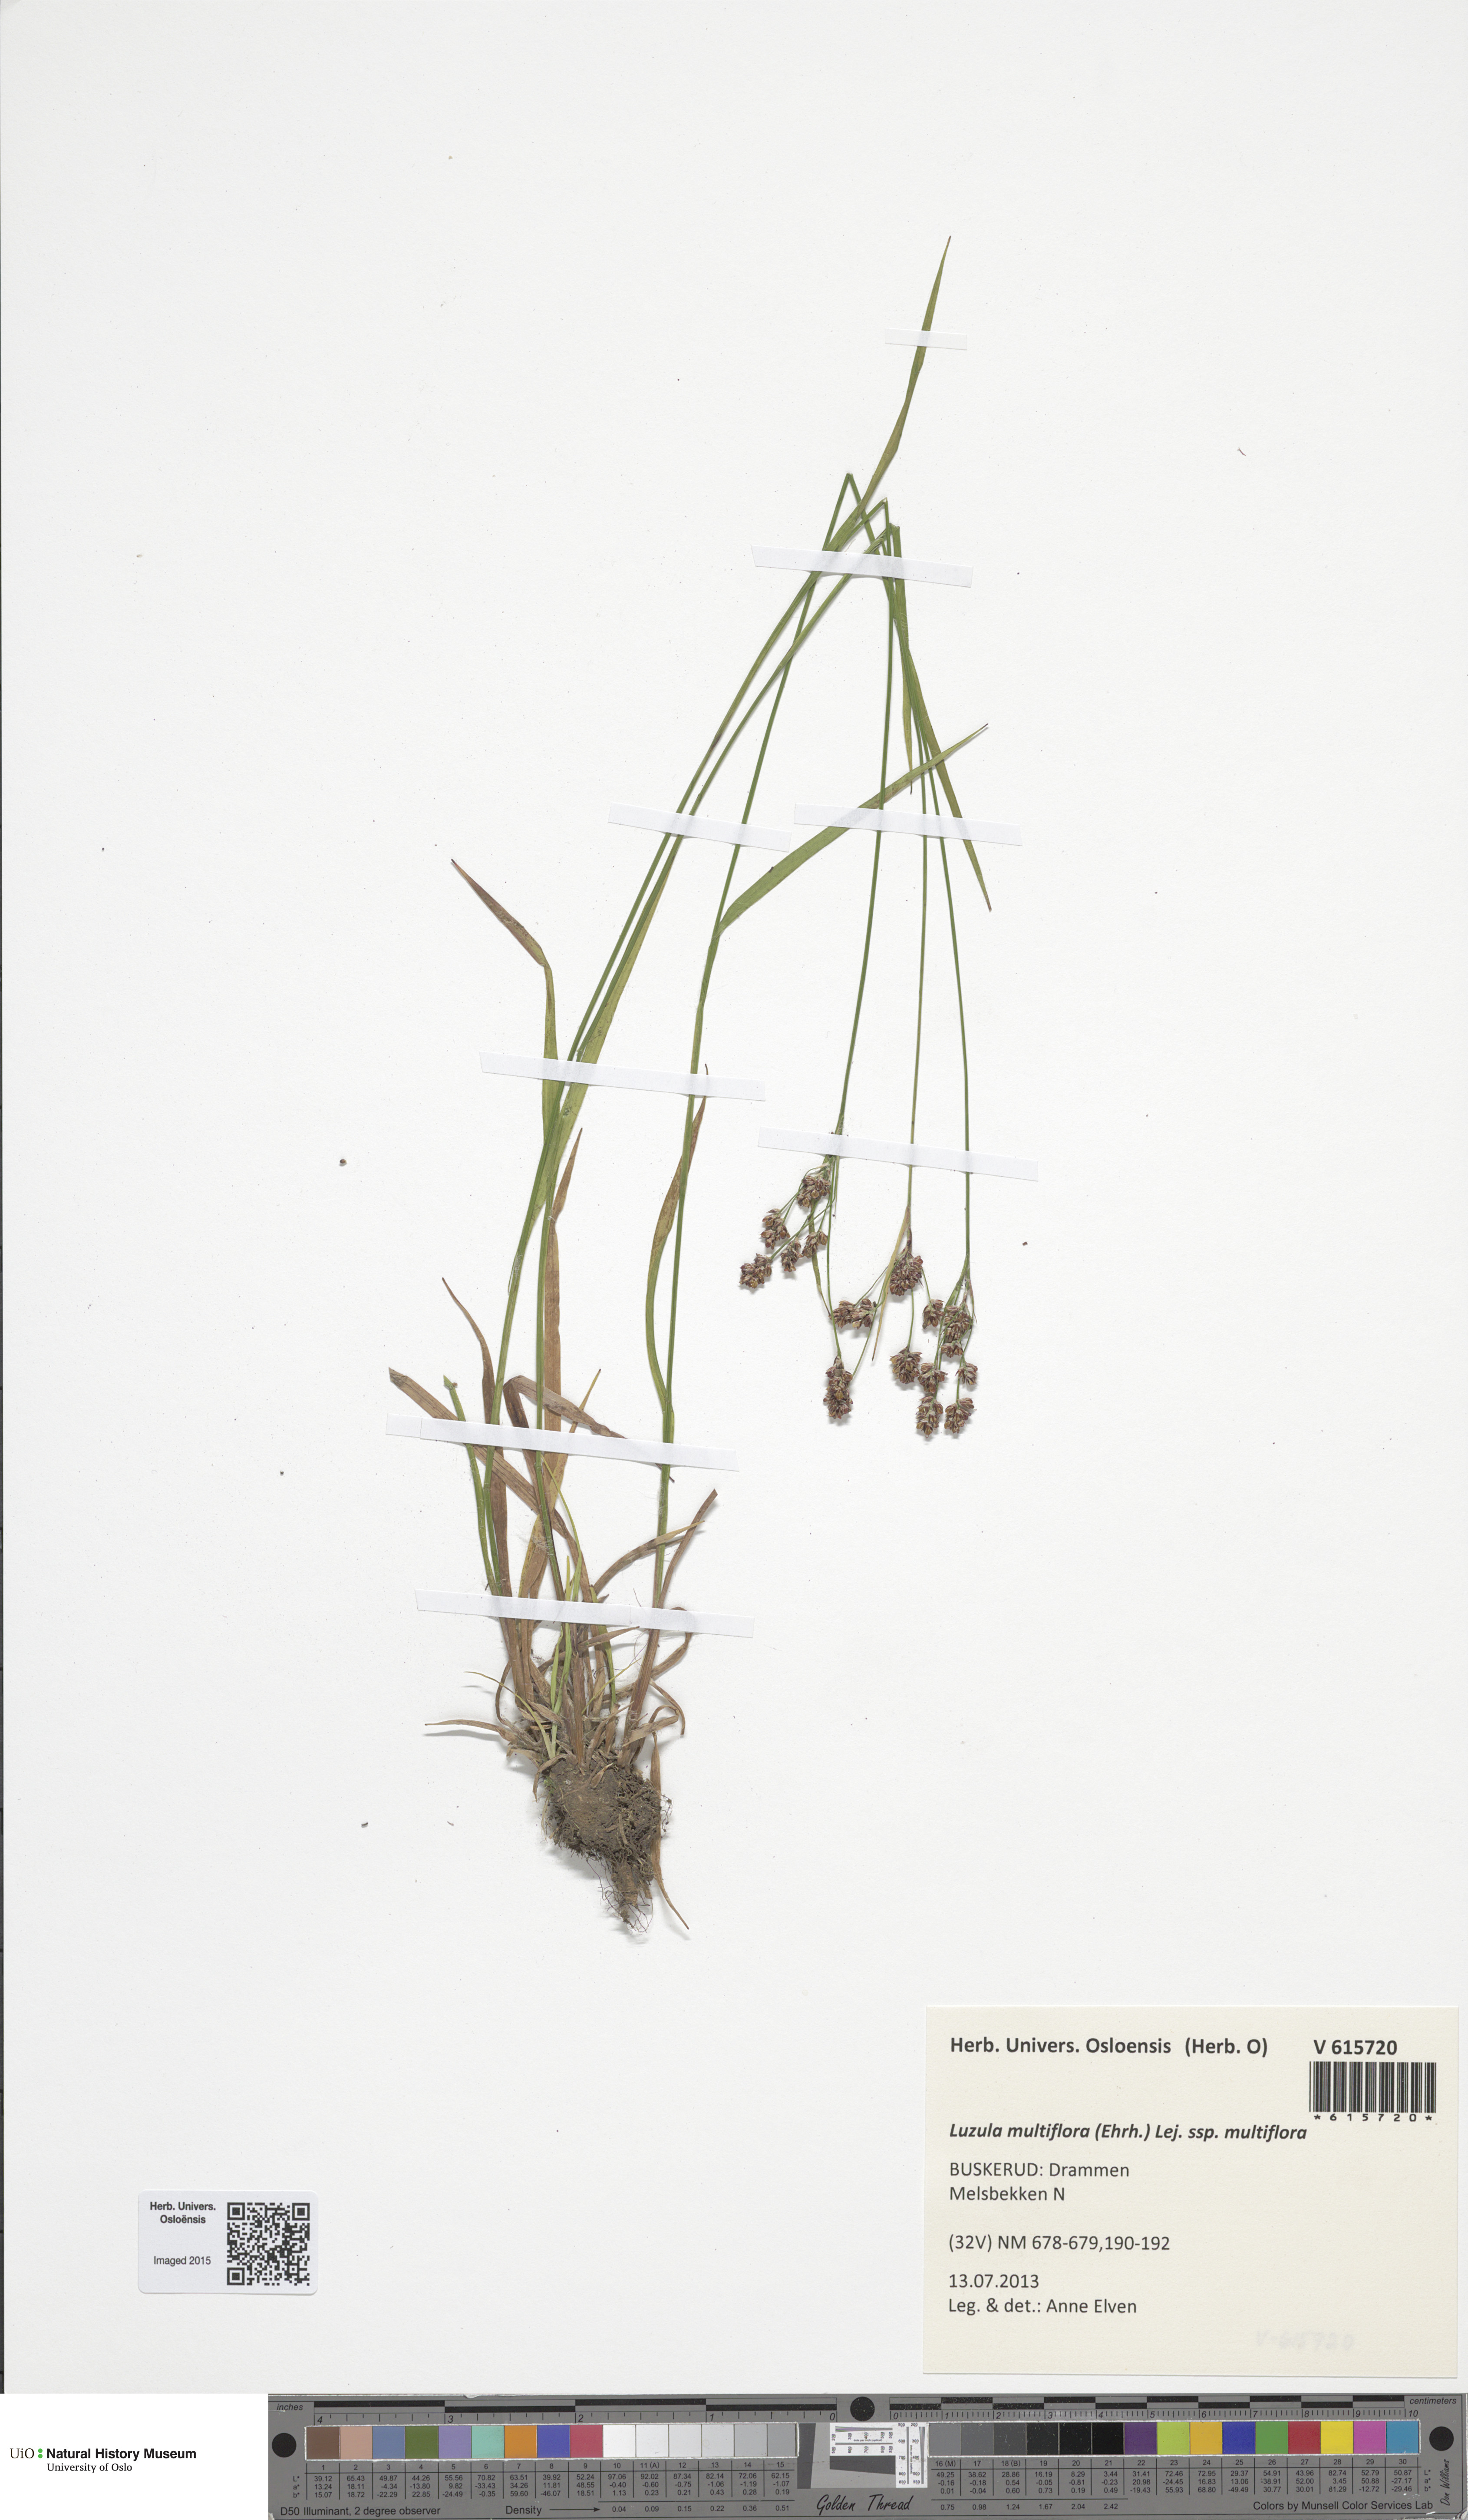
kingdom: Plantae
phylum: Tracheophyta
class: Liliopsida
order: Poales
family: Juncaceae
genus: Luzula
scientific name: Luzula multiflora
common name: Heath wood-rush
